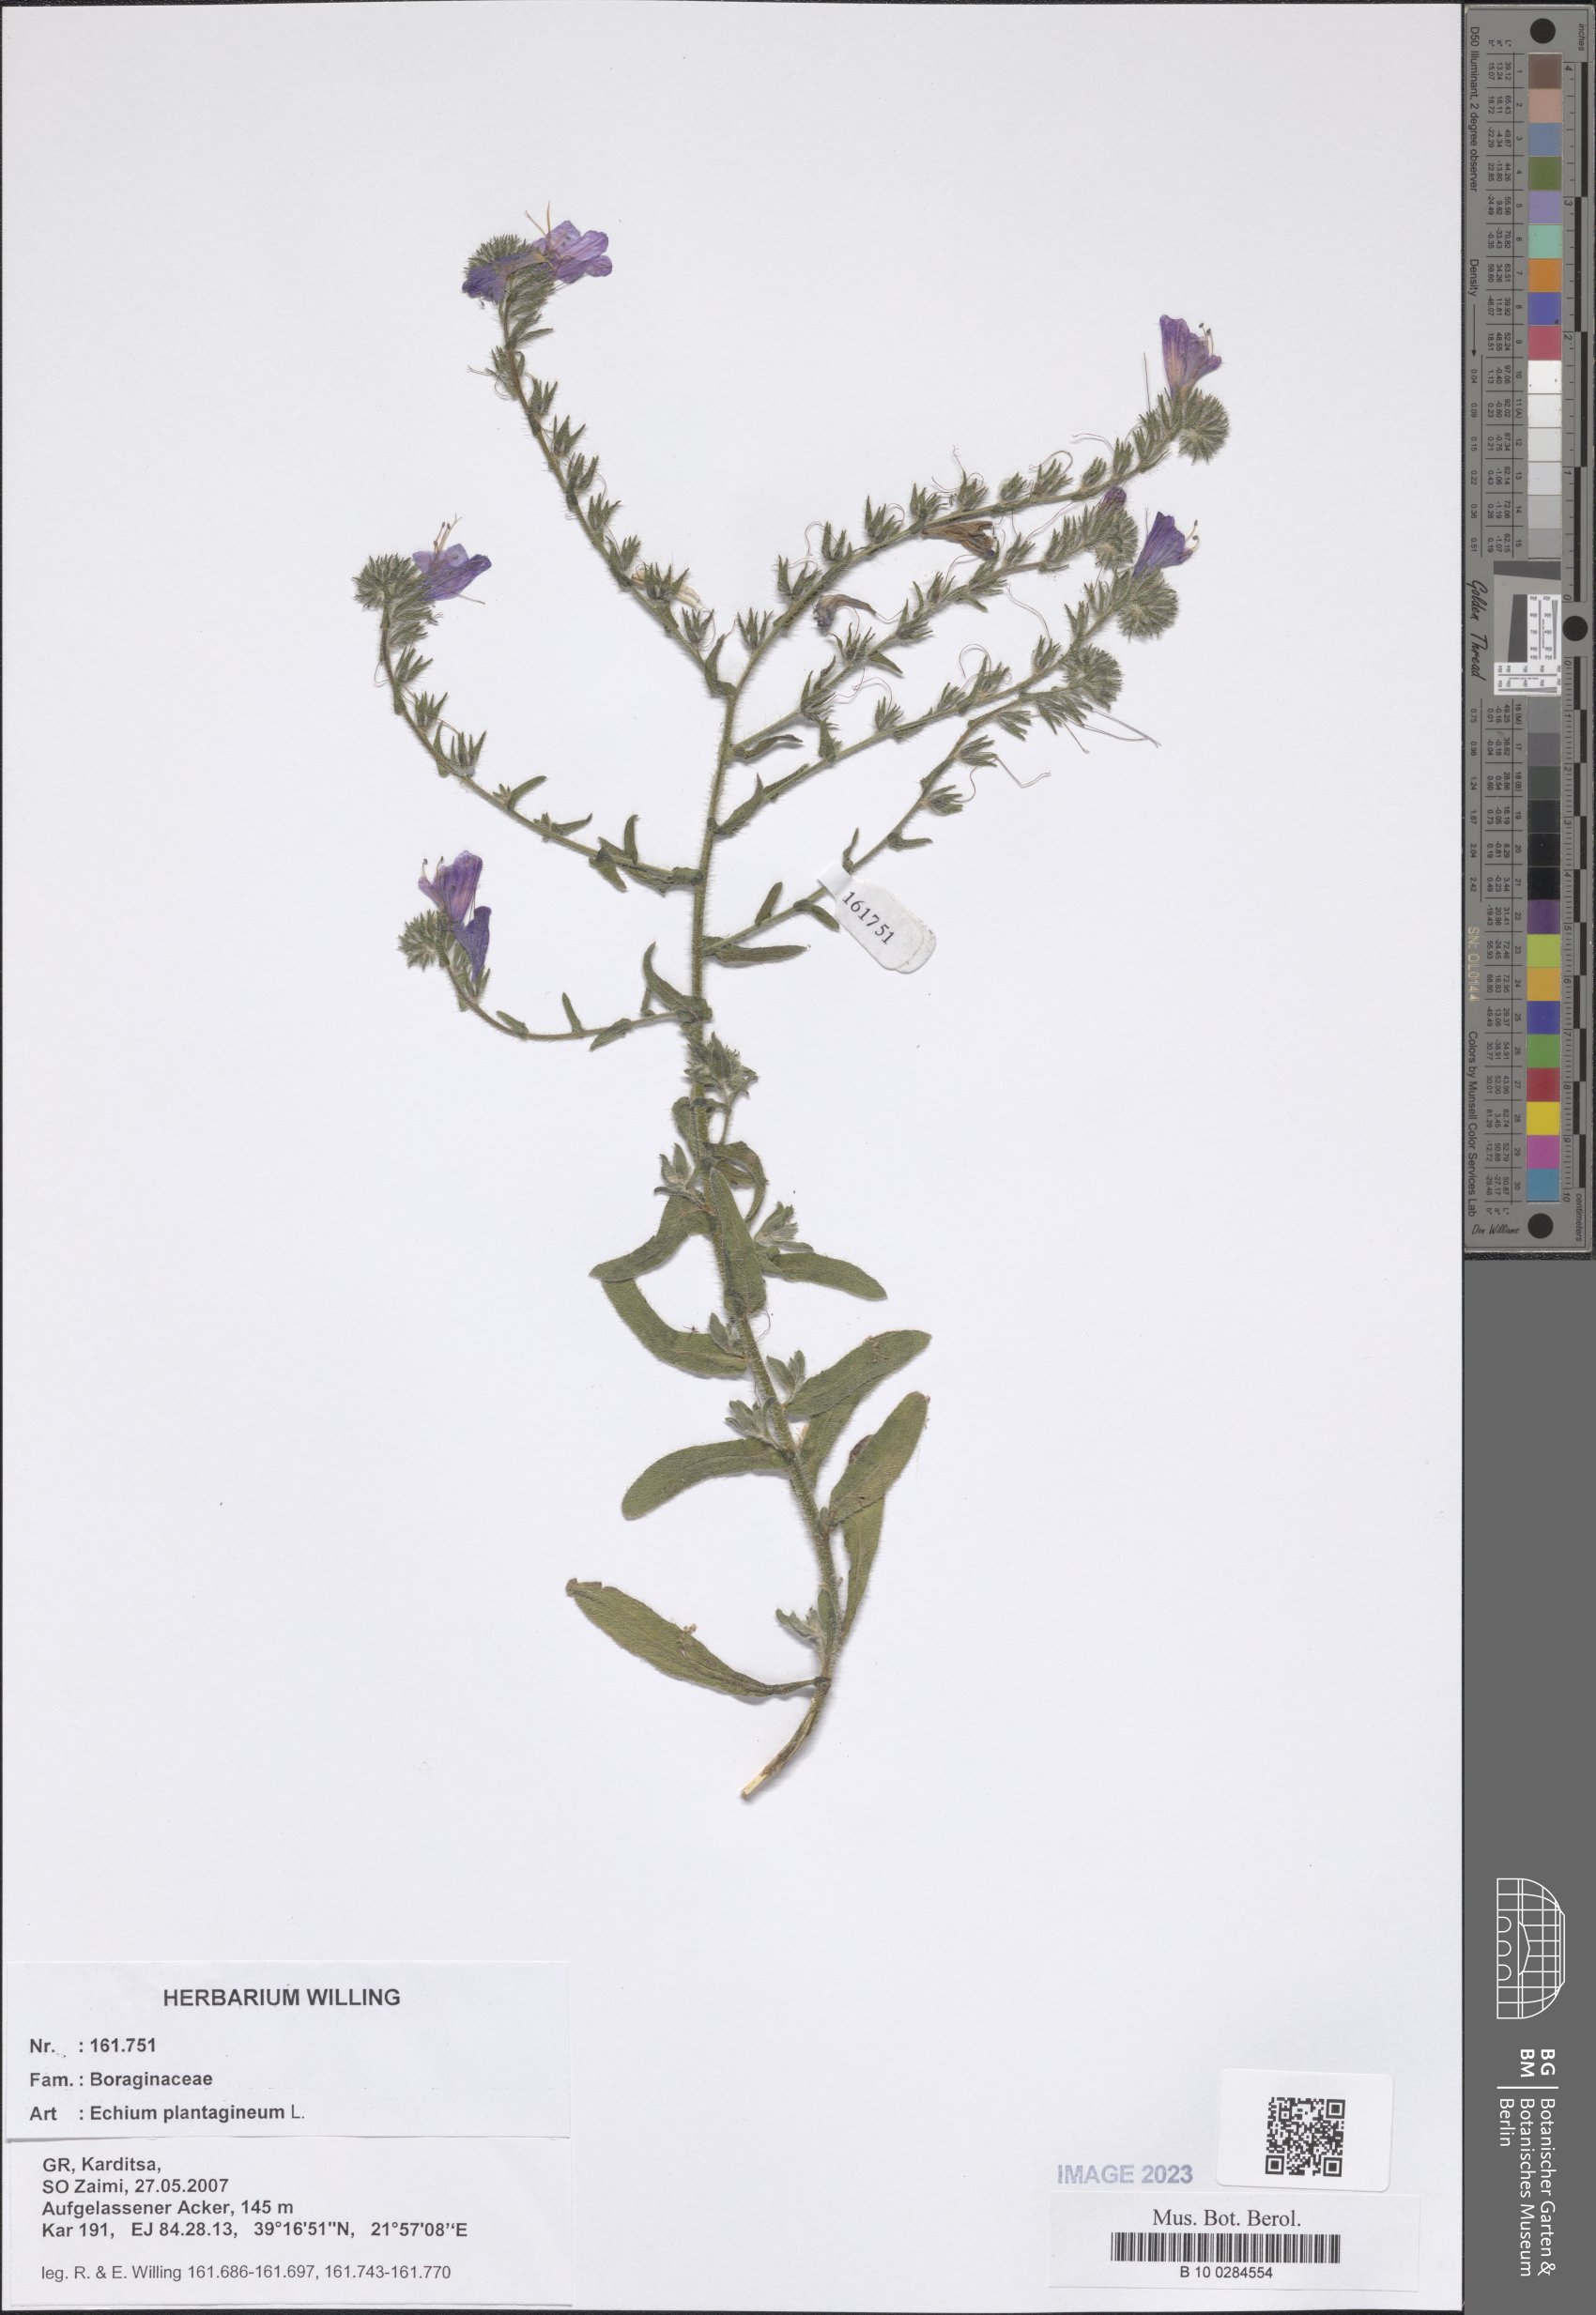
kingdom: Plantae
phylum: Tracheophyta
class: Magnoliopsida
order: Boraginales
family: Boraginaceae
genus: Echium
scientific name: Echium plantagineum
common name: Purple viper's-bugloss
